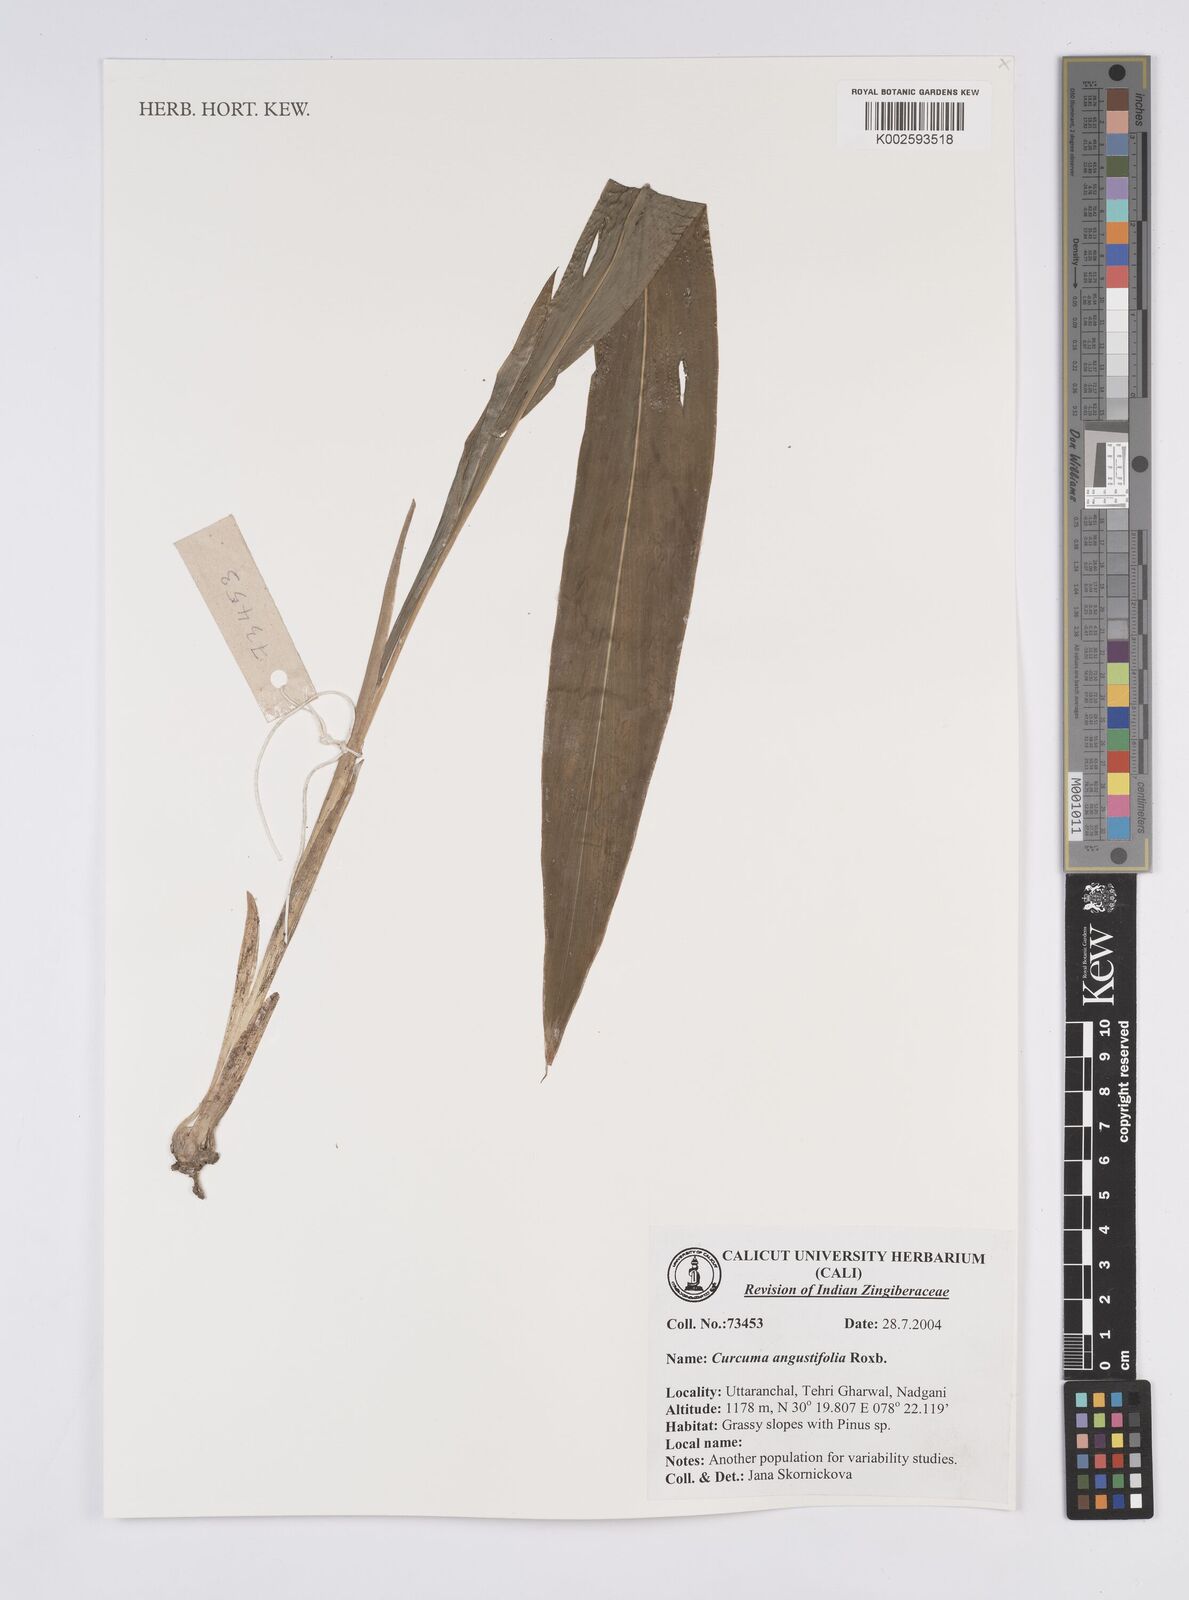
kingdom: Plantae
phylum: Tracheophyta
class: Liliopsida
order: Zingiberales
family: Zingiberaceae
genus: Curcuma
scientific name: Curcuma angustifolia
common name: East indian arrowroot
